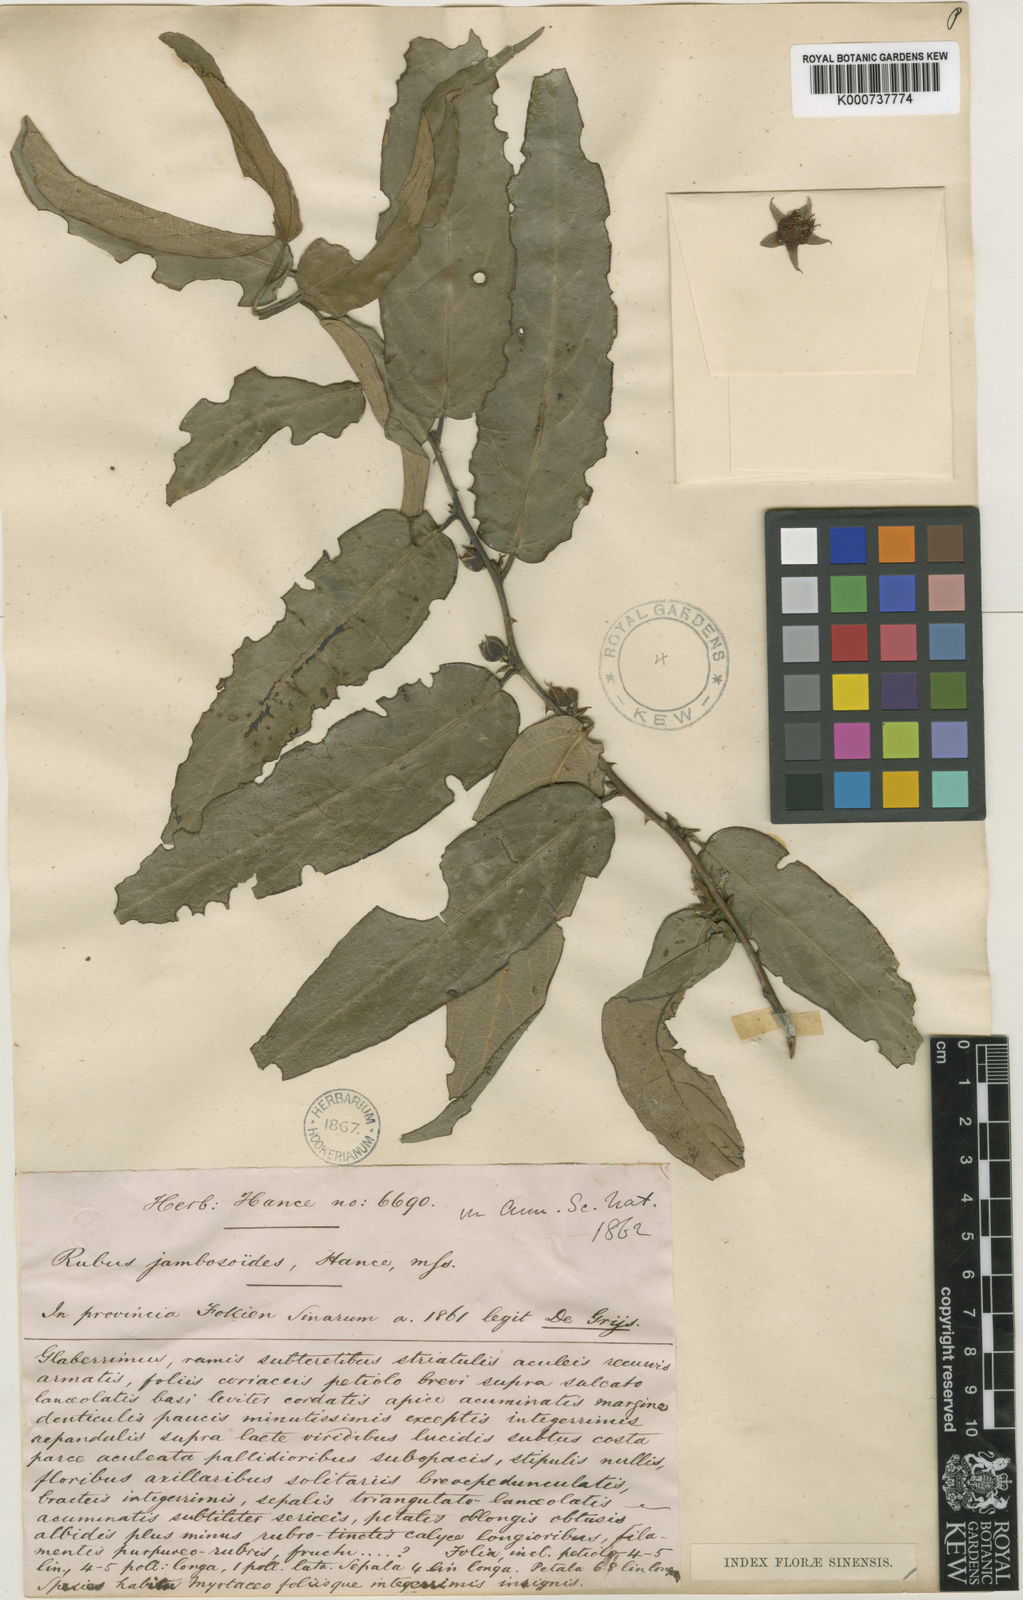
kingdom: Plantae
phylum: Tracheophyta
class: Magnoliopsida
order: Rosales
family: Rosaceae
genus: Rubus
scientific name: Rubus jambosoides
